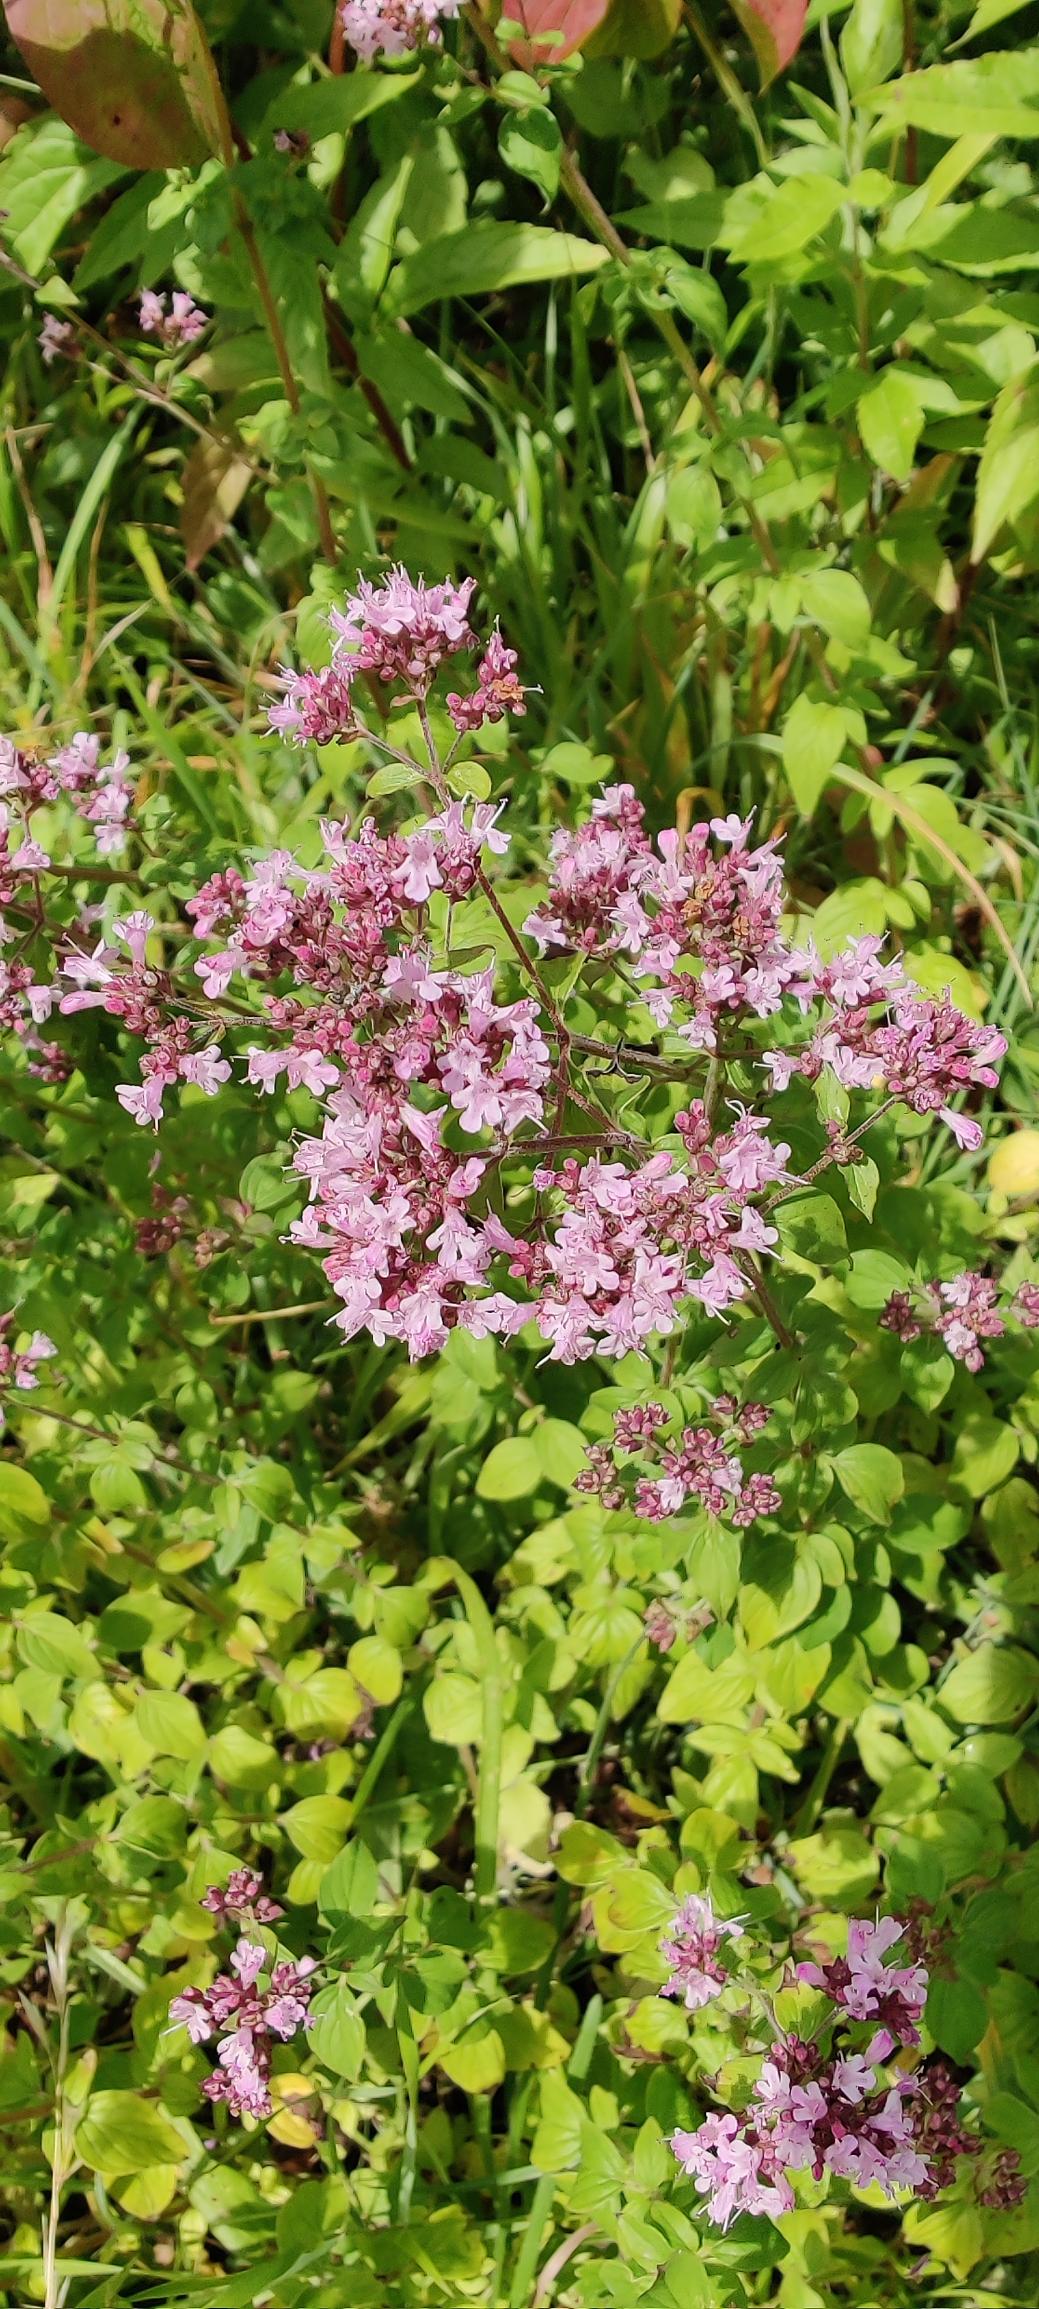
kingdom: Plantae
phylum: Tracheophyta
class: Magnoliopsida
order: Lamiales
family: Lamiaceae
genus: Origanum
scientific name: Origanum vulgare
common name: Merian
